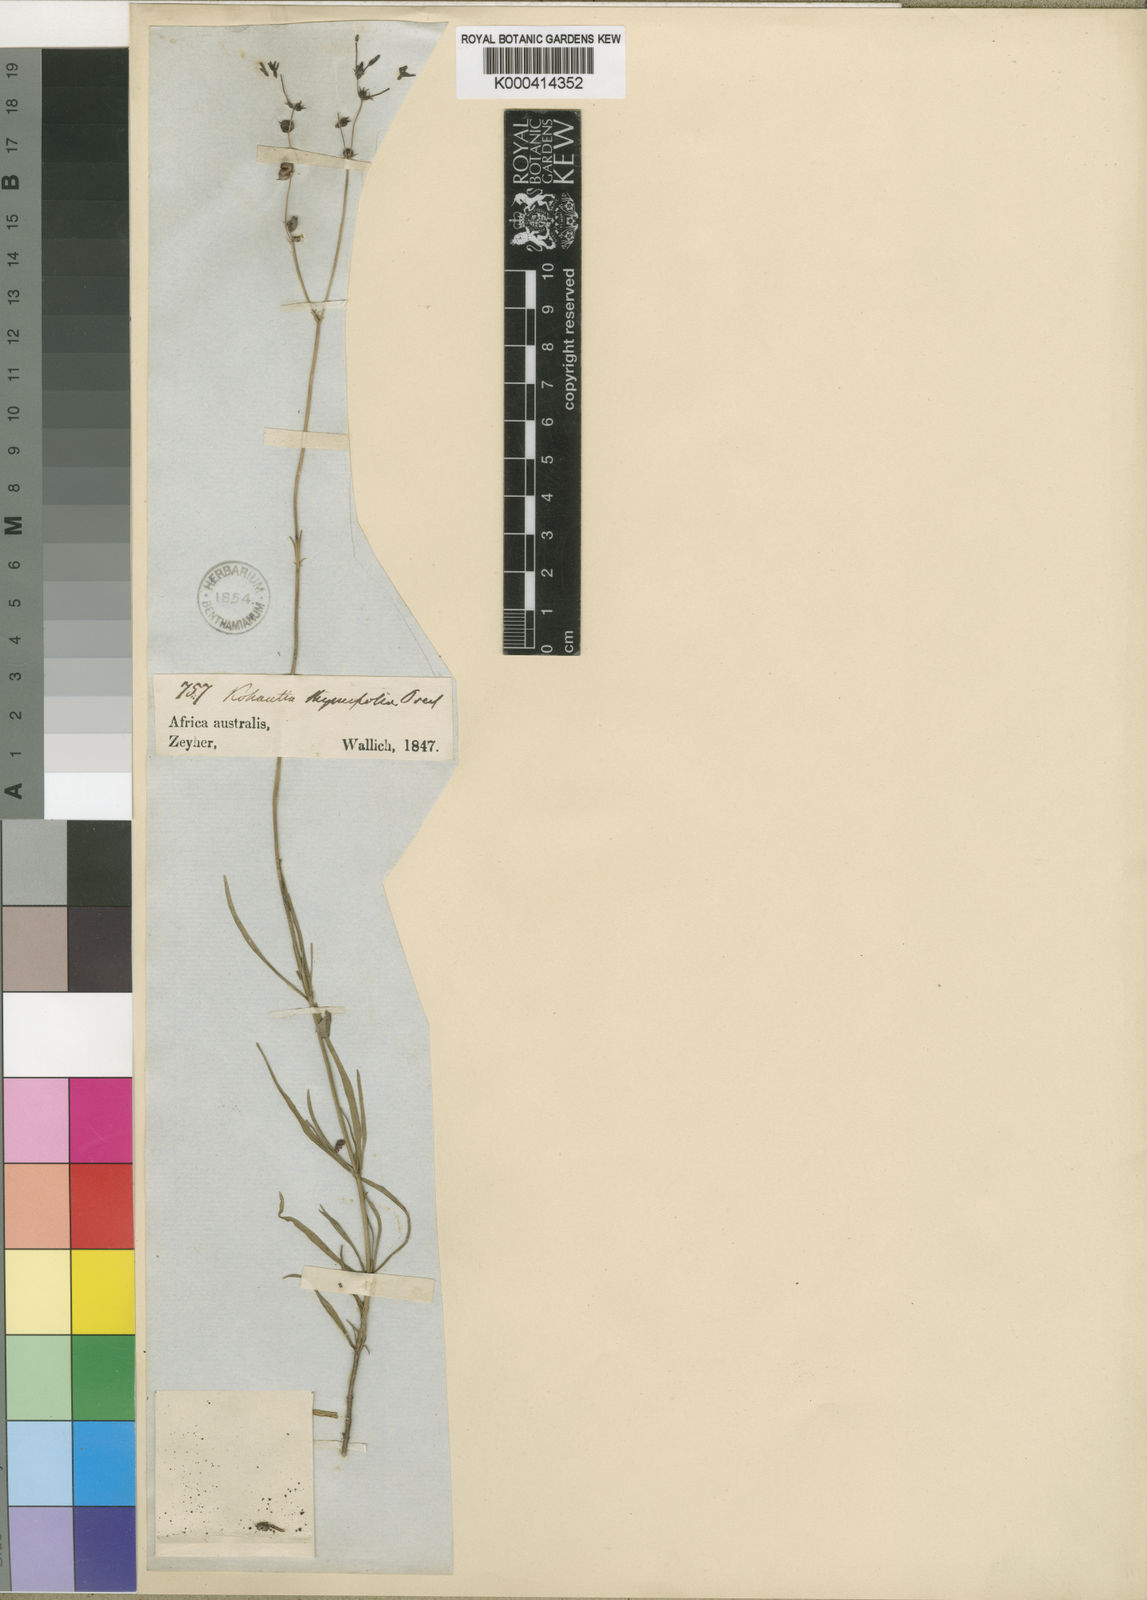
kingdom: Plantae
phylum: Tracheophyta
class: Magnoliopsida
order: Gentianales
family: Rubiaceae
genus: Kohautia
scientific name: Kohautia caespitosa
